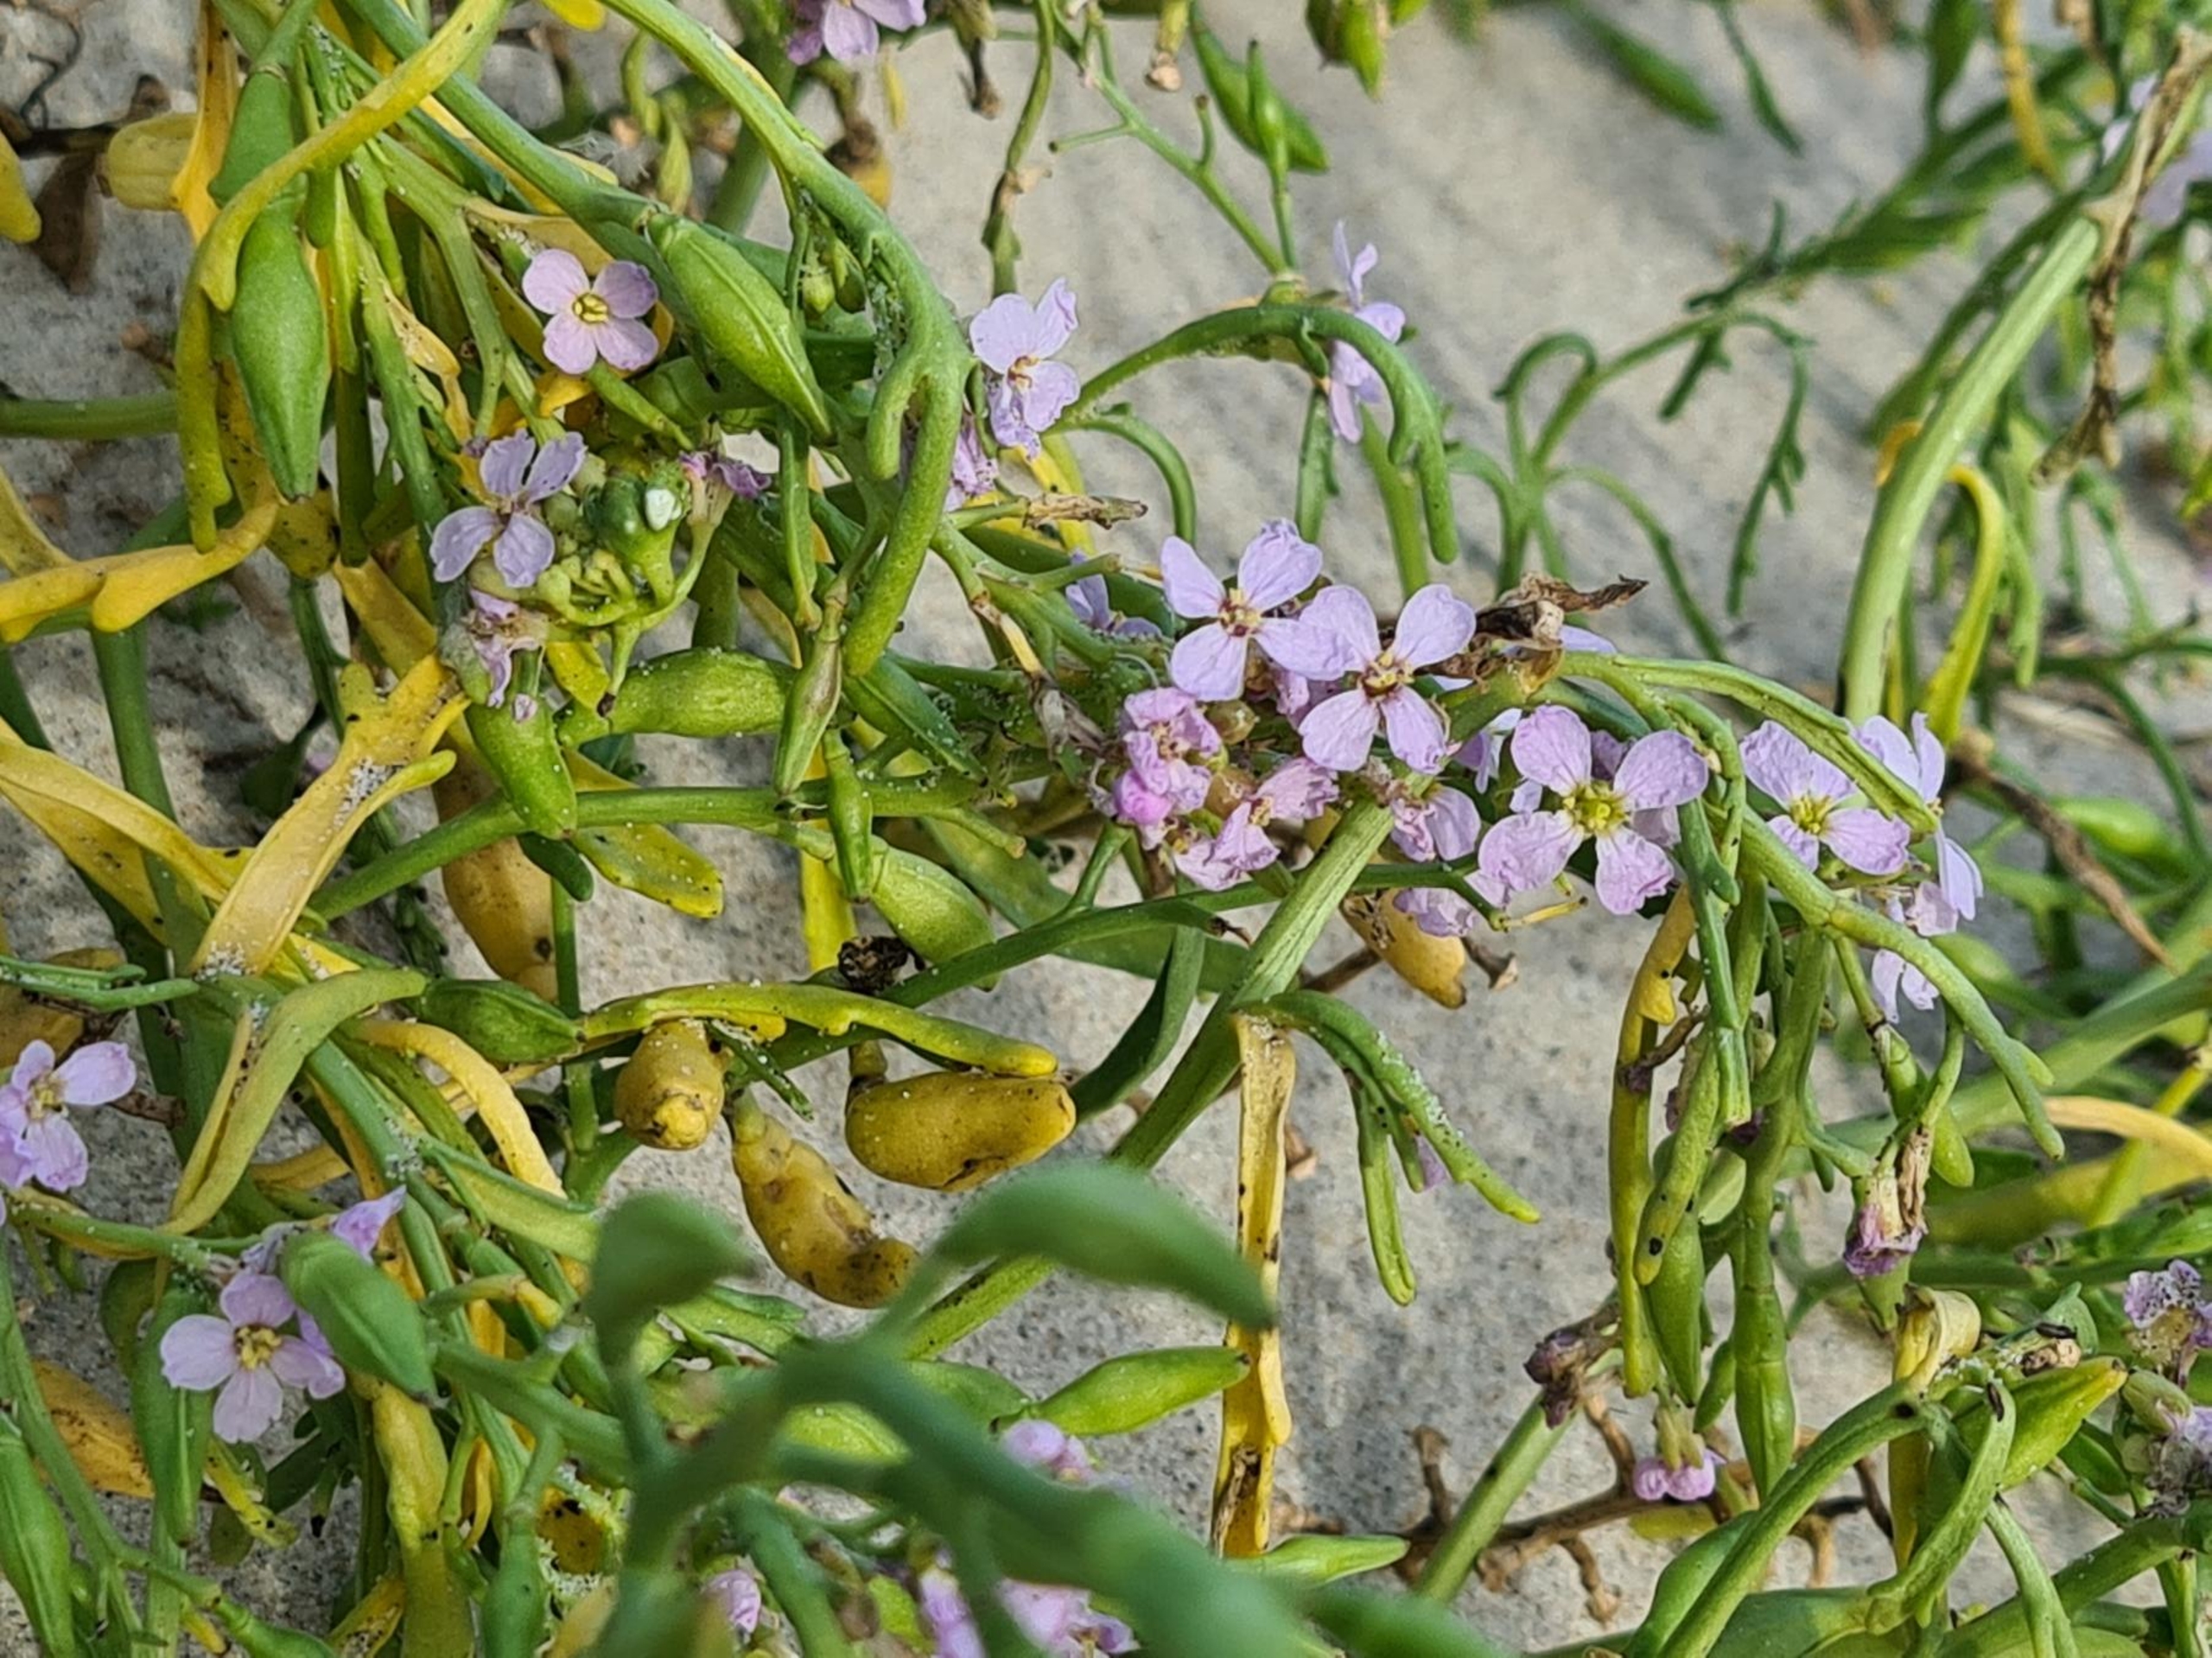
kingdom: Plantae
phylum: Tracheophyta
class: Magnoliopsida
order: Brassicales
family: Brassicaceae
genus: Cakile
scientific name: Cakile maritima
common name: Strandsennep
